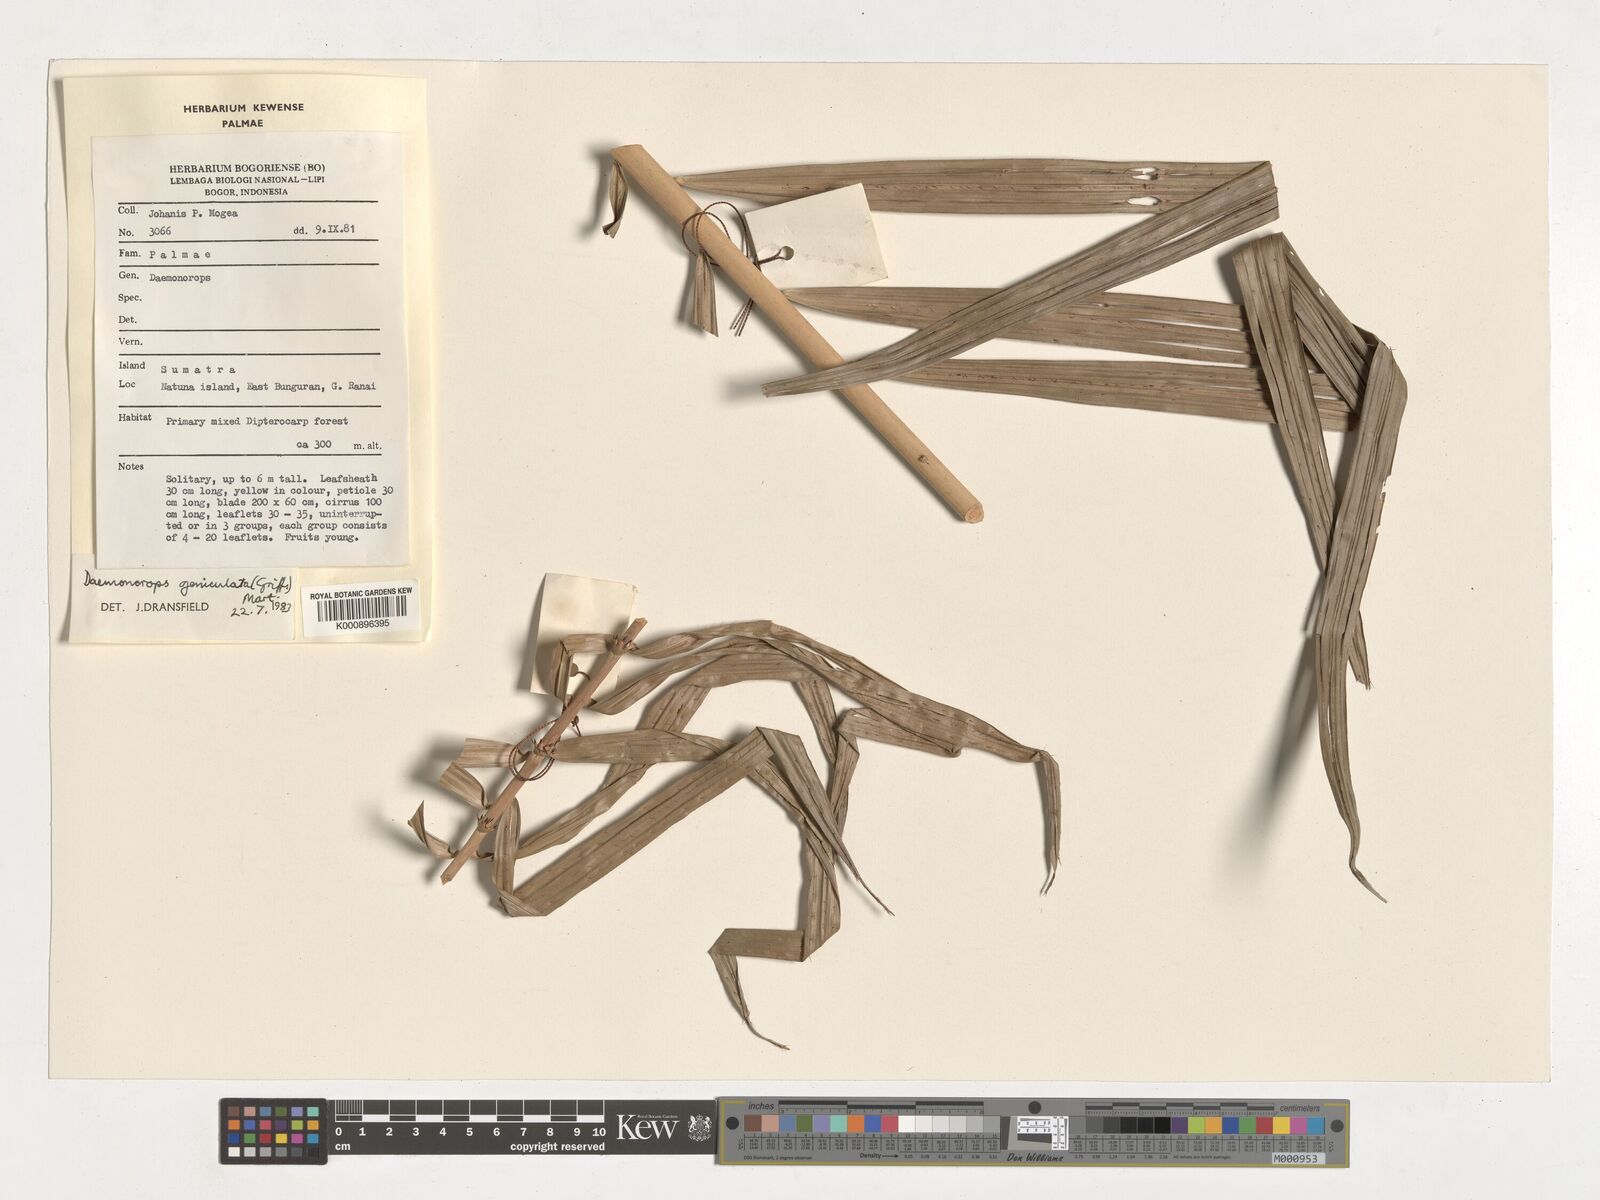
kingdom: Plantae
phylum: Tracheophyta
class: Liliopsida
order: Arecales
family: Arecaceae
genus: Calamus
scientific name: Calamus geniculatus
